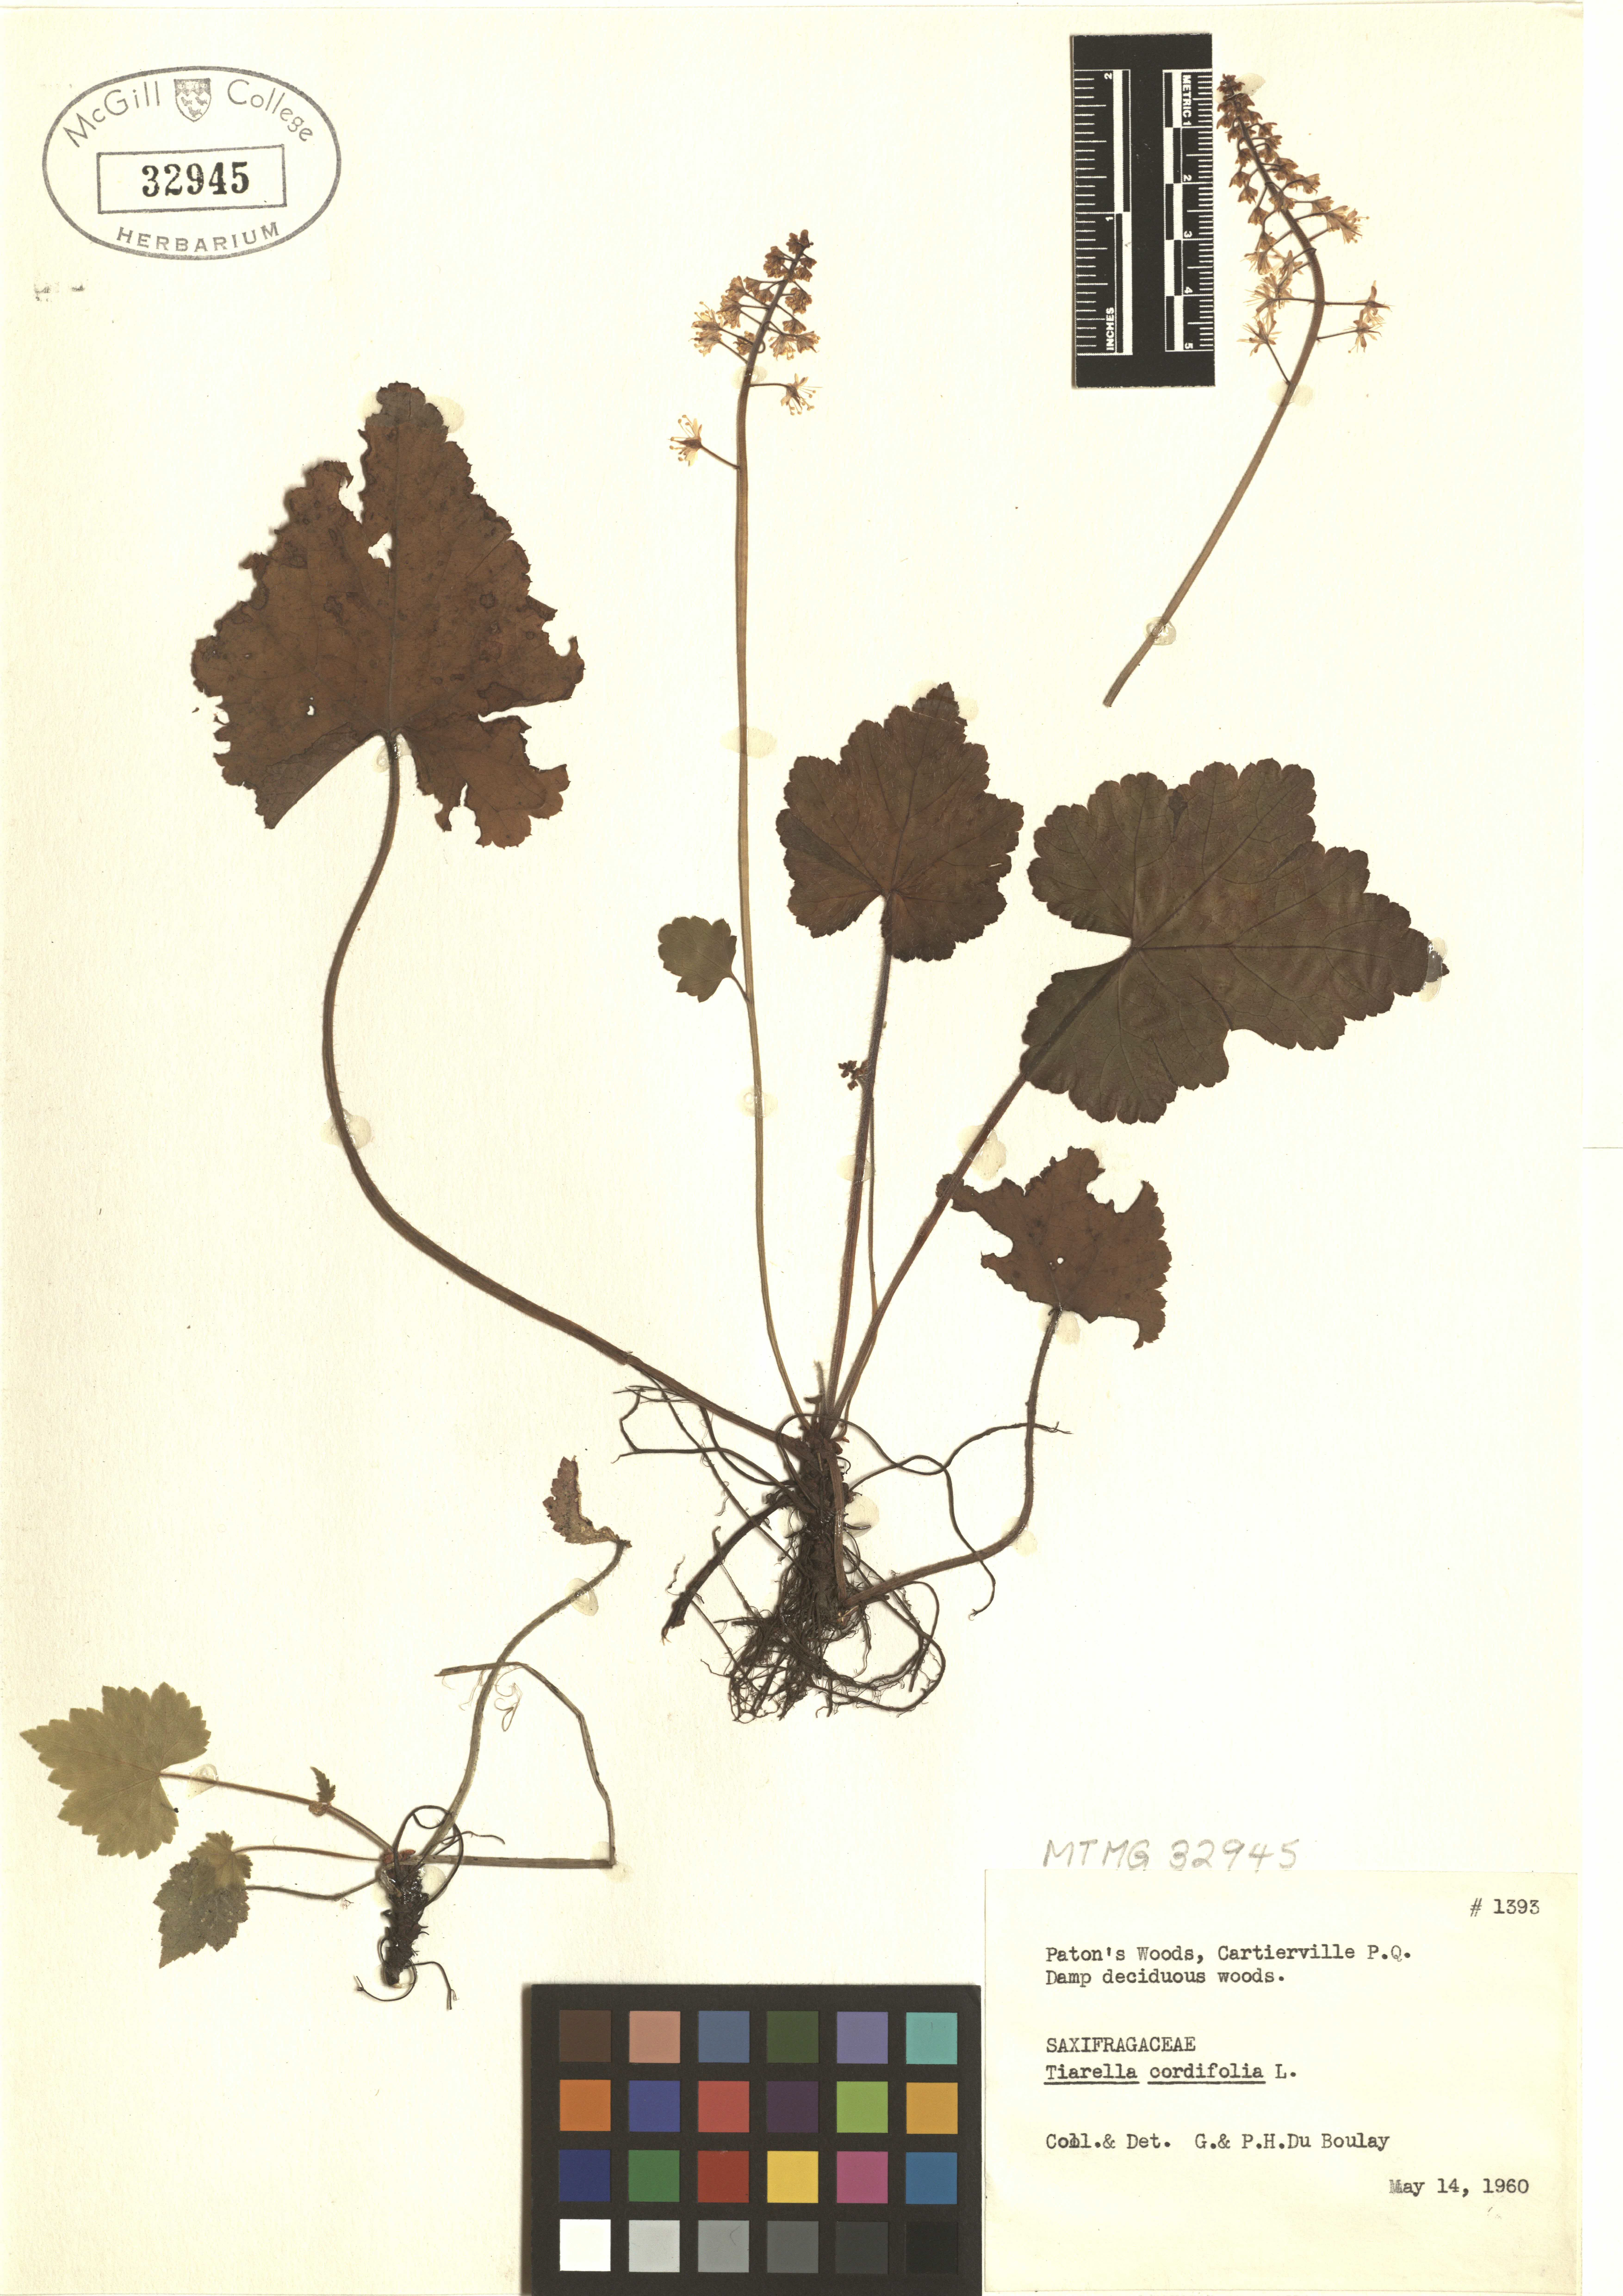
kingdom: Plantae
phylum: Tracheophyta
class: Magnoliopsida
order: Saxifragales
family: Saxifragaceae
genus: Tiarella
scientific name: Tiarella cordifolia
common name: Foamflower
